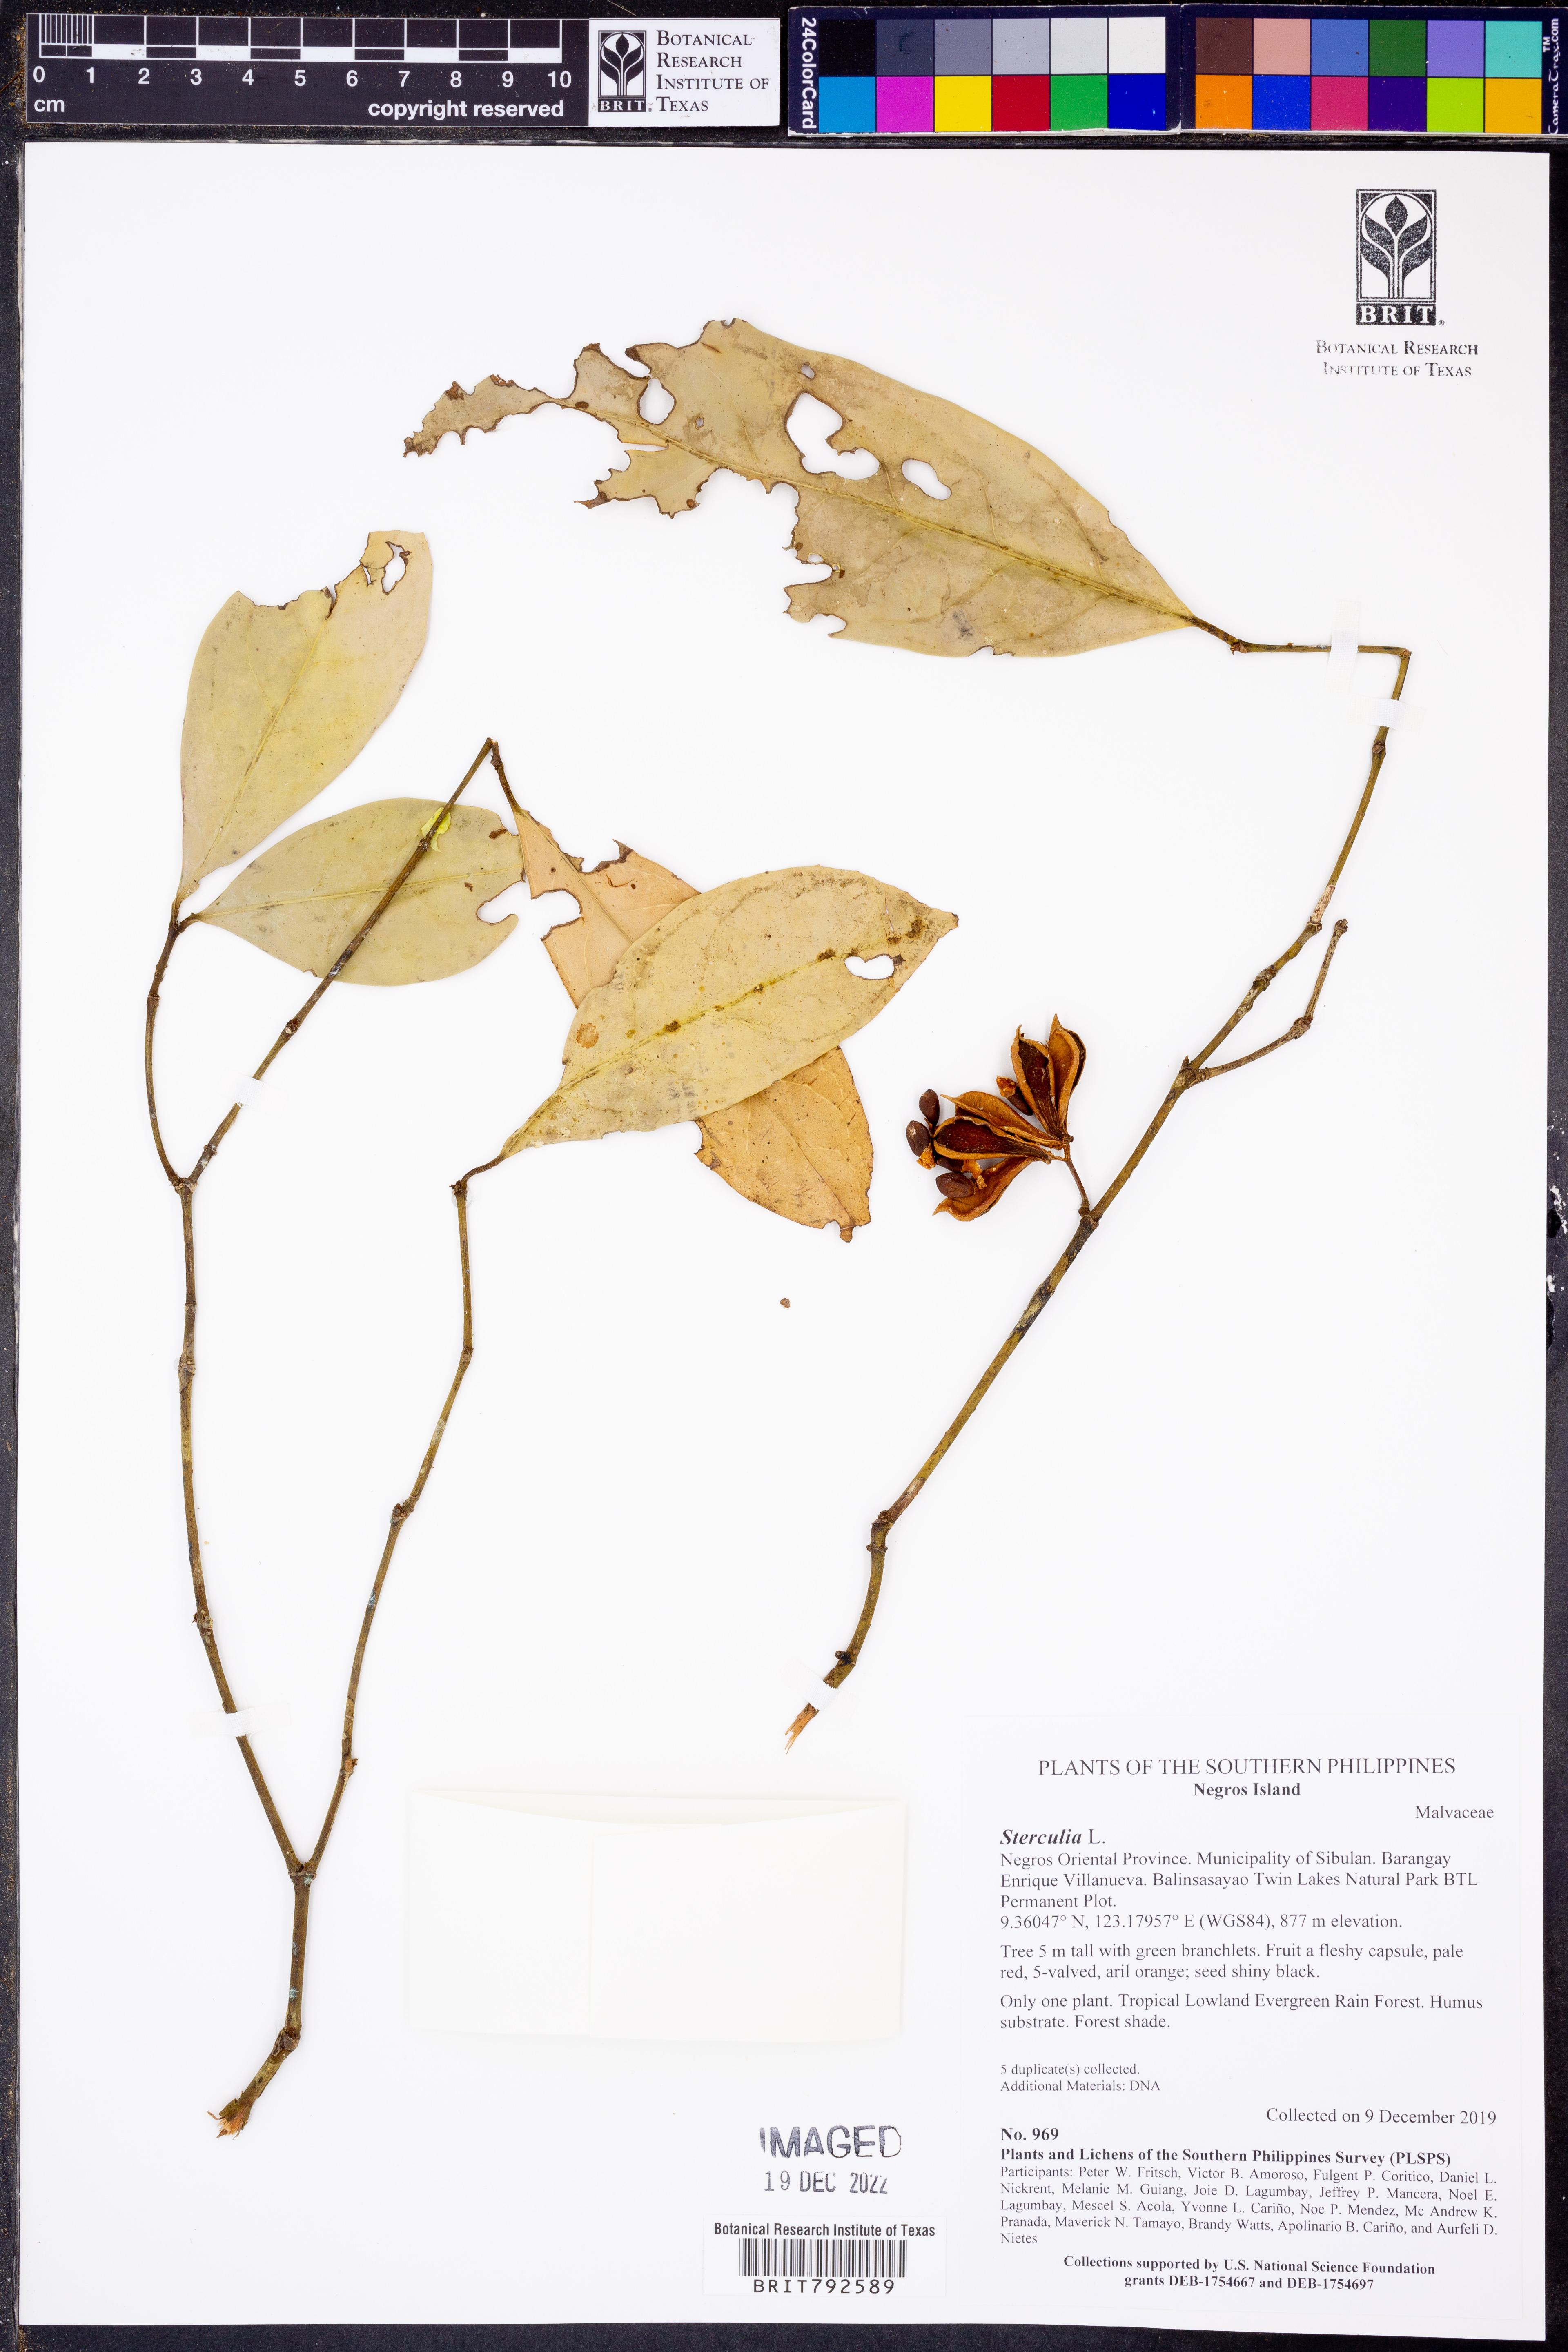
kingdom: Plantae
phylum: Tracheophyta
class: Magnoliopsida
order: Malvales
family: Malvaceae
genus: Sterculia
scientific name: Sterculia
